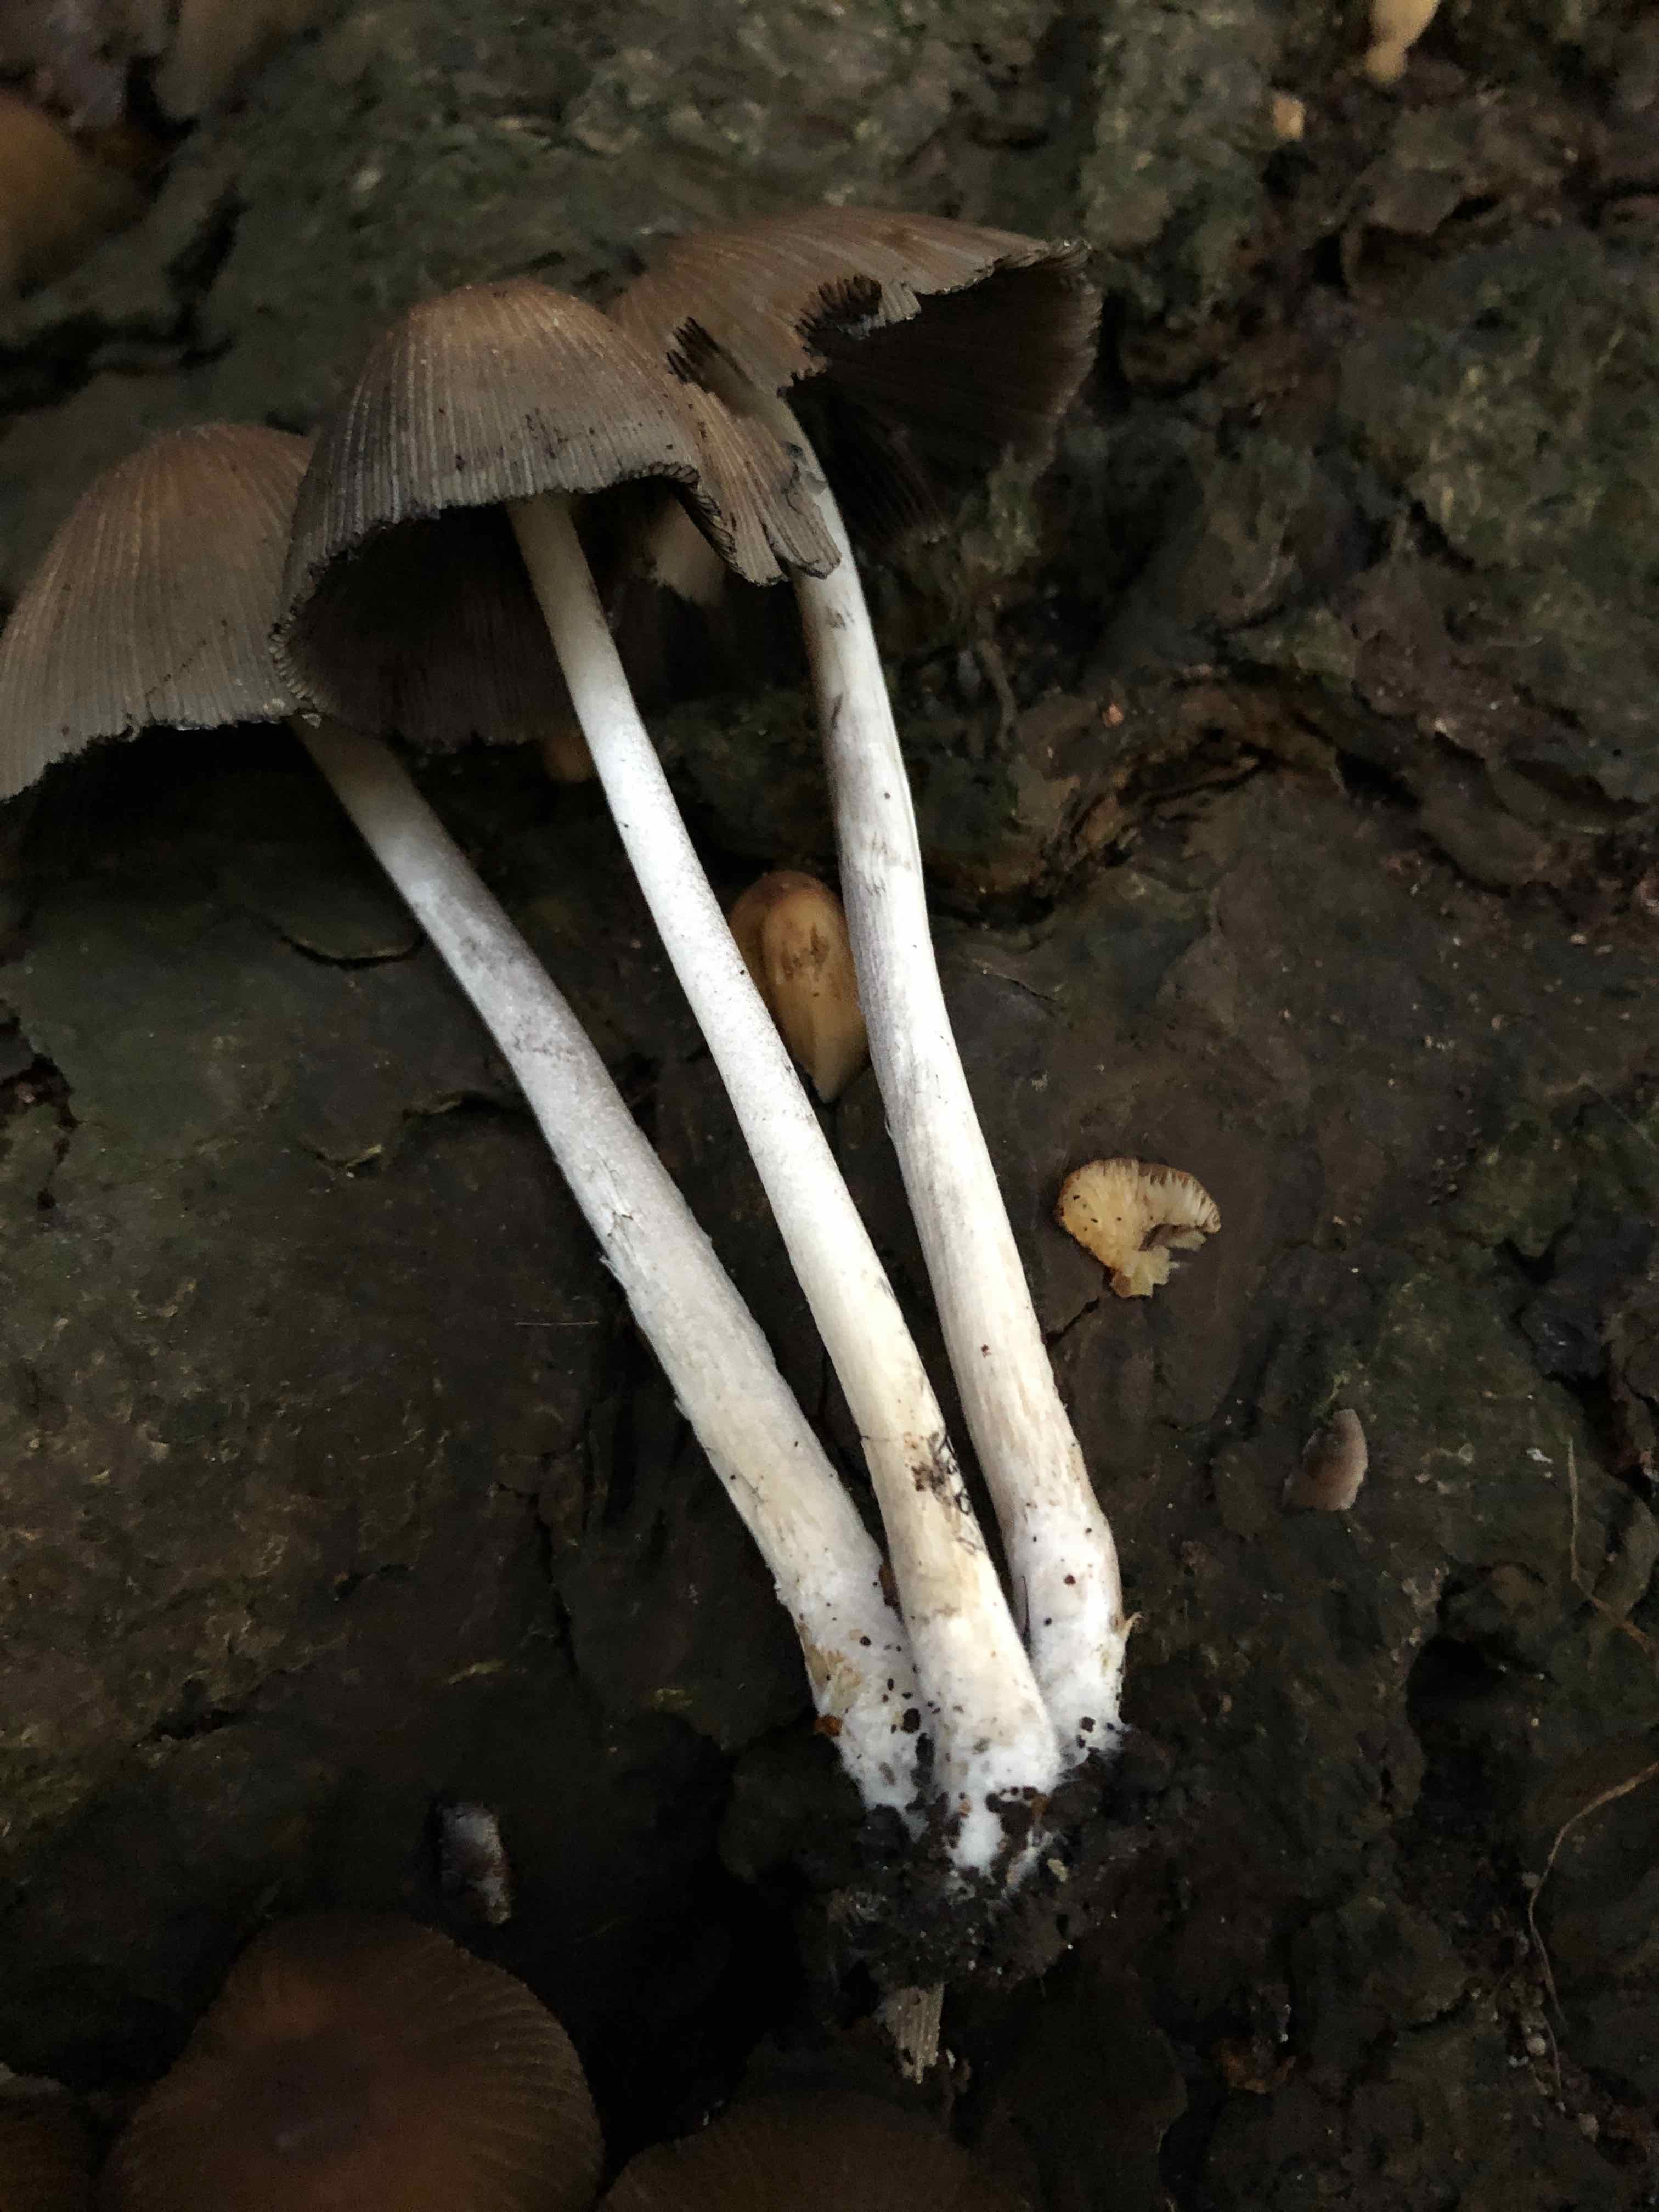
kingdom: Fungi
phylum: Basidiomycota
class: Agaricomycetes
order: Agaricales
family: Psathyrellaceae
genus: Coprinellus
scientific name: Coprinellus micaceus
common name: glimmer-blækhat
